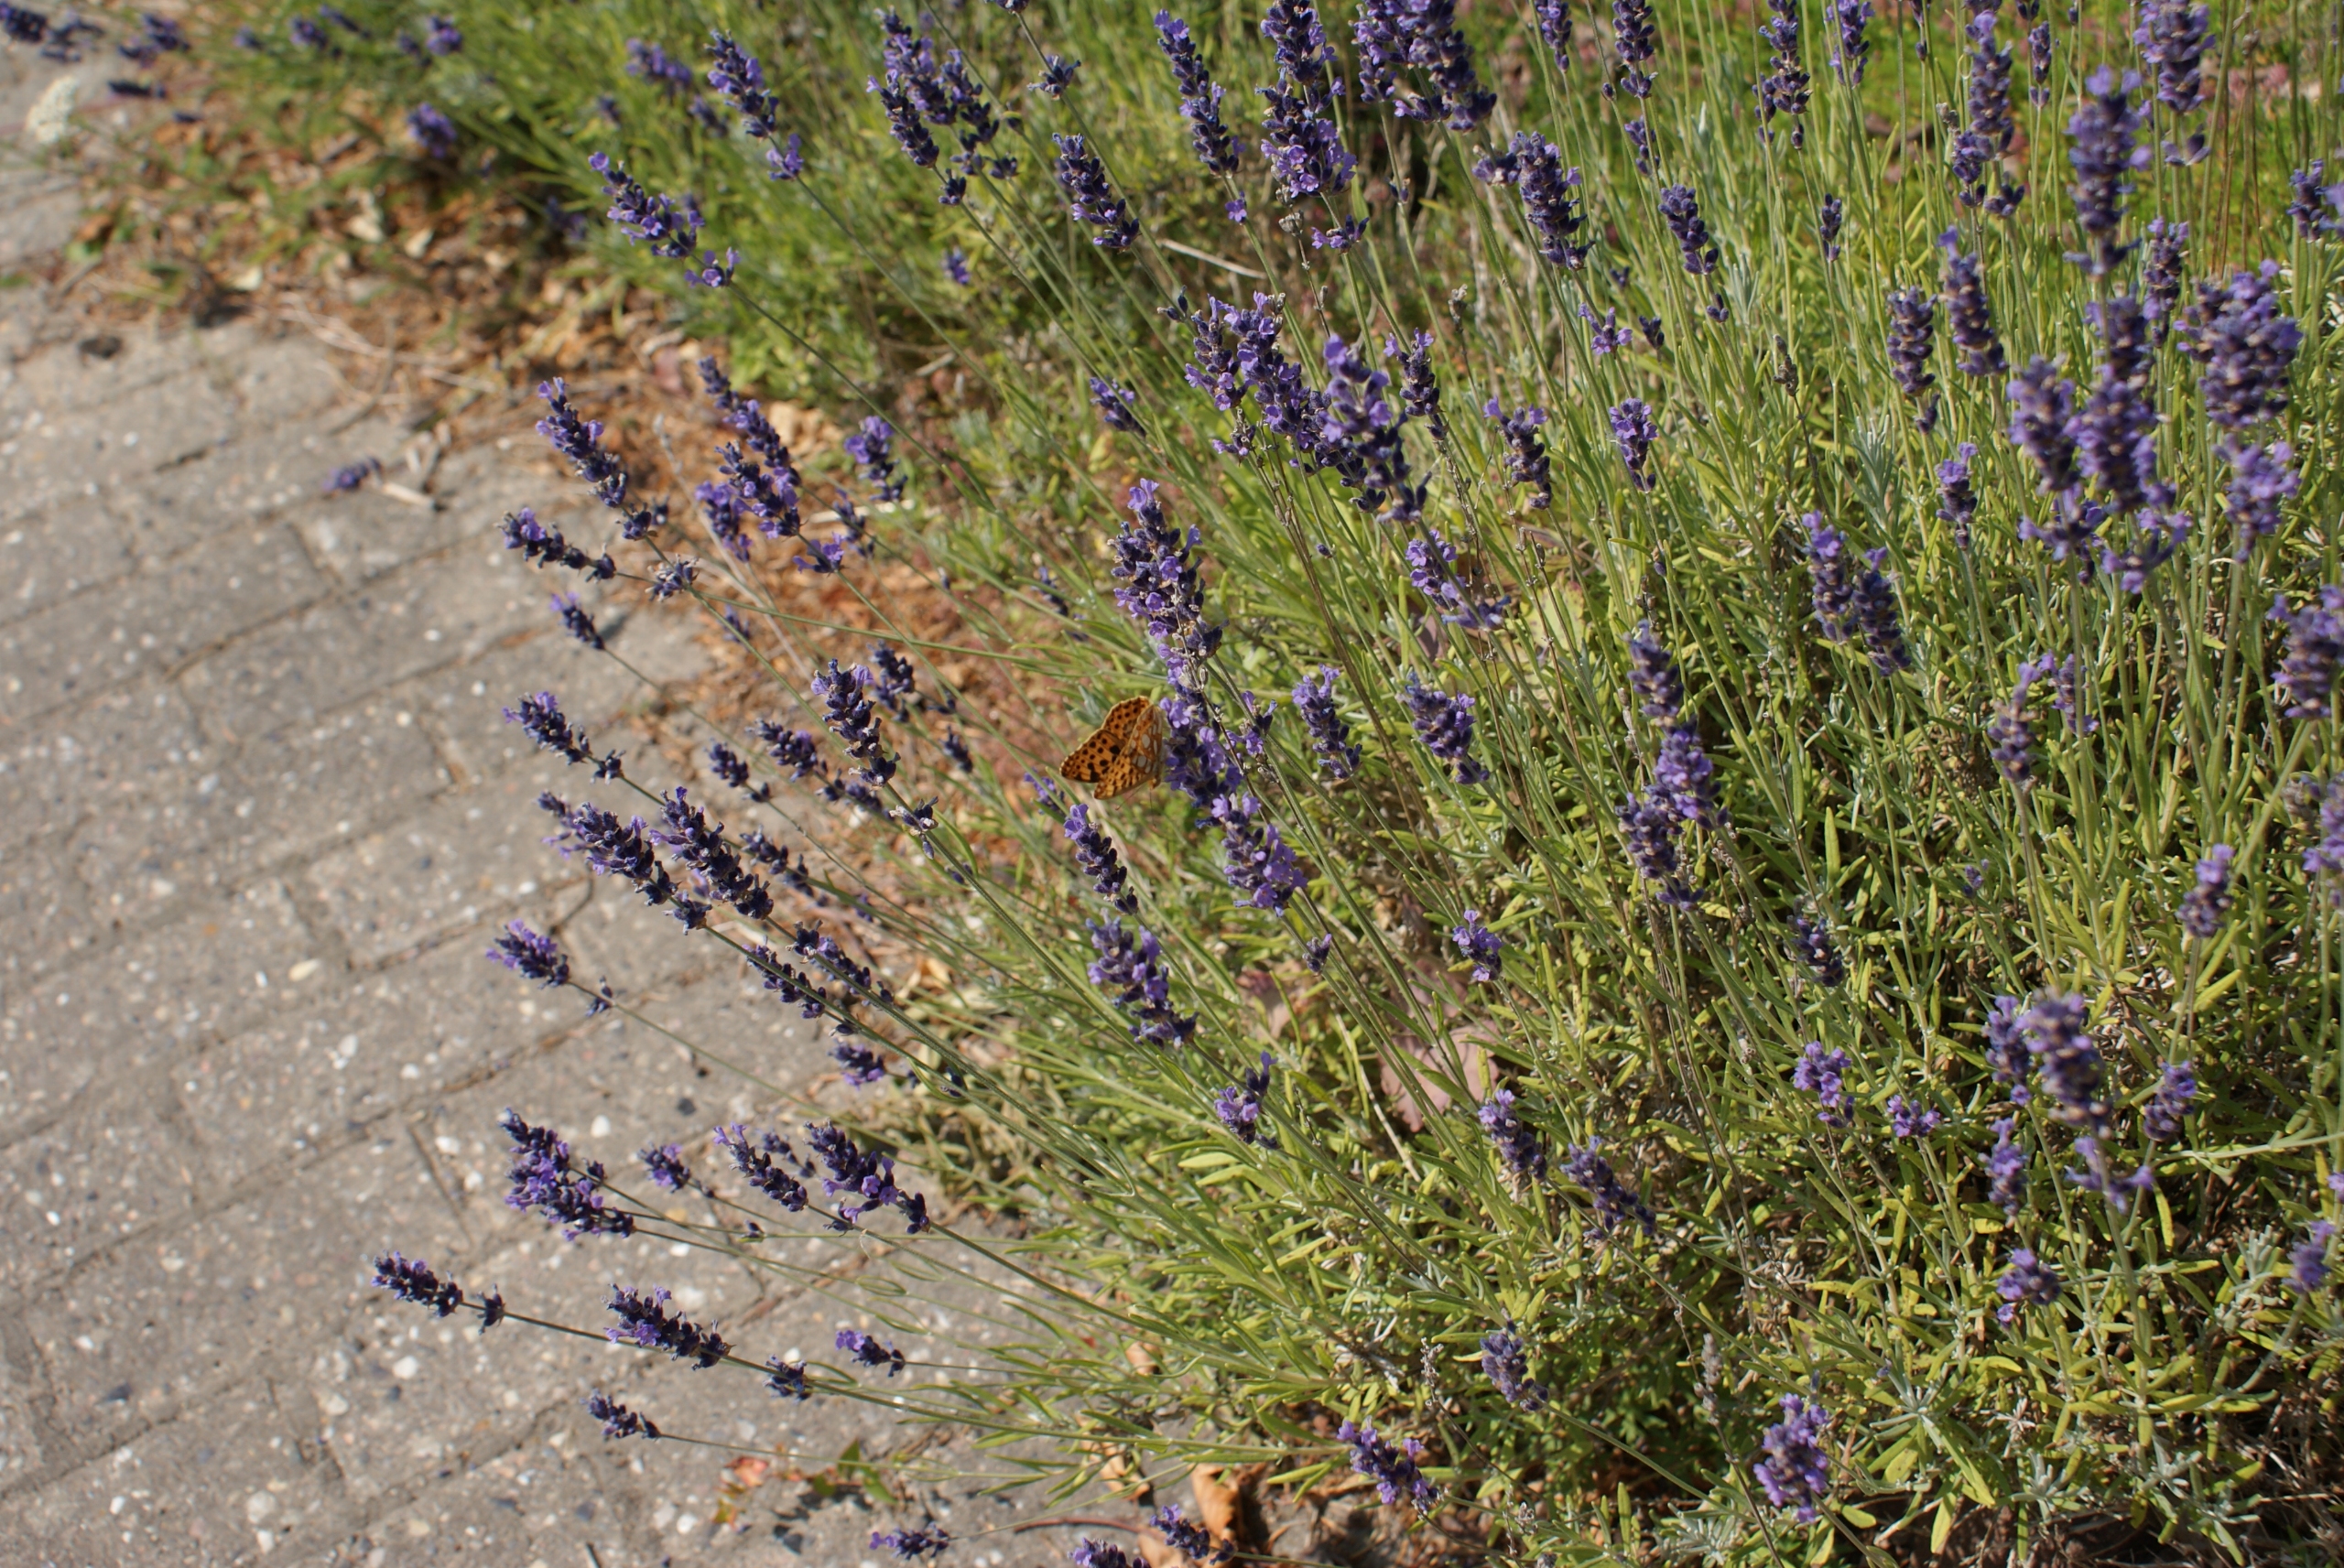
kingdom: Animalia
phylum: Arthropoda
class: Insecta
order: Lepidoptera
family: Nymphalidae
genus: Issoria
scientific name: Issoria lathonia
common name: Storplettet perlemorsommerfugl
